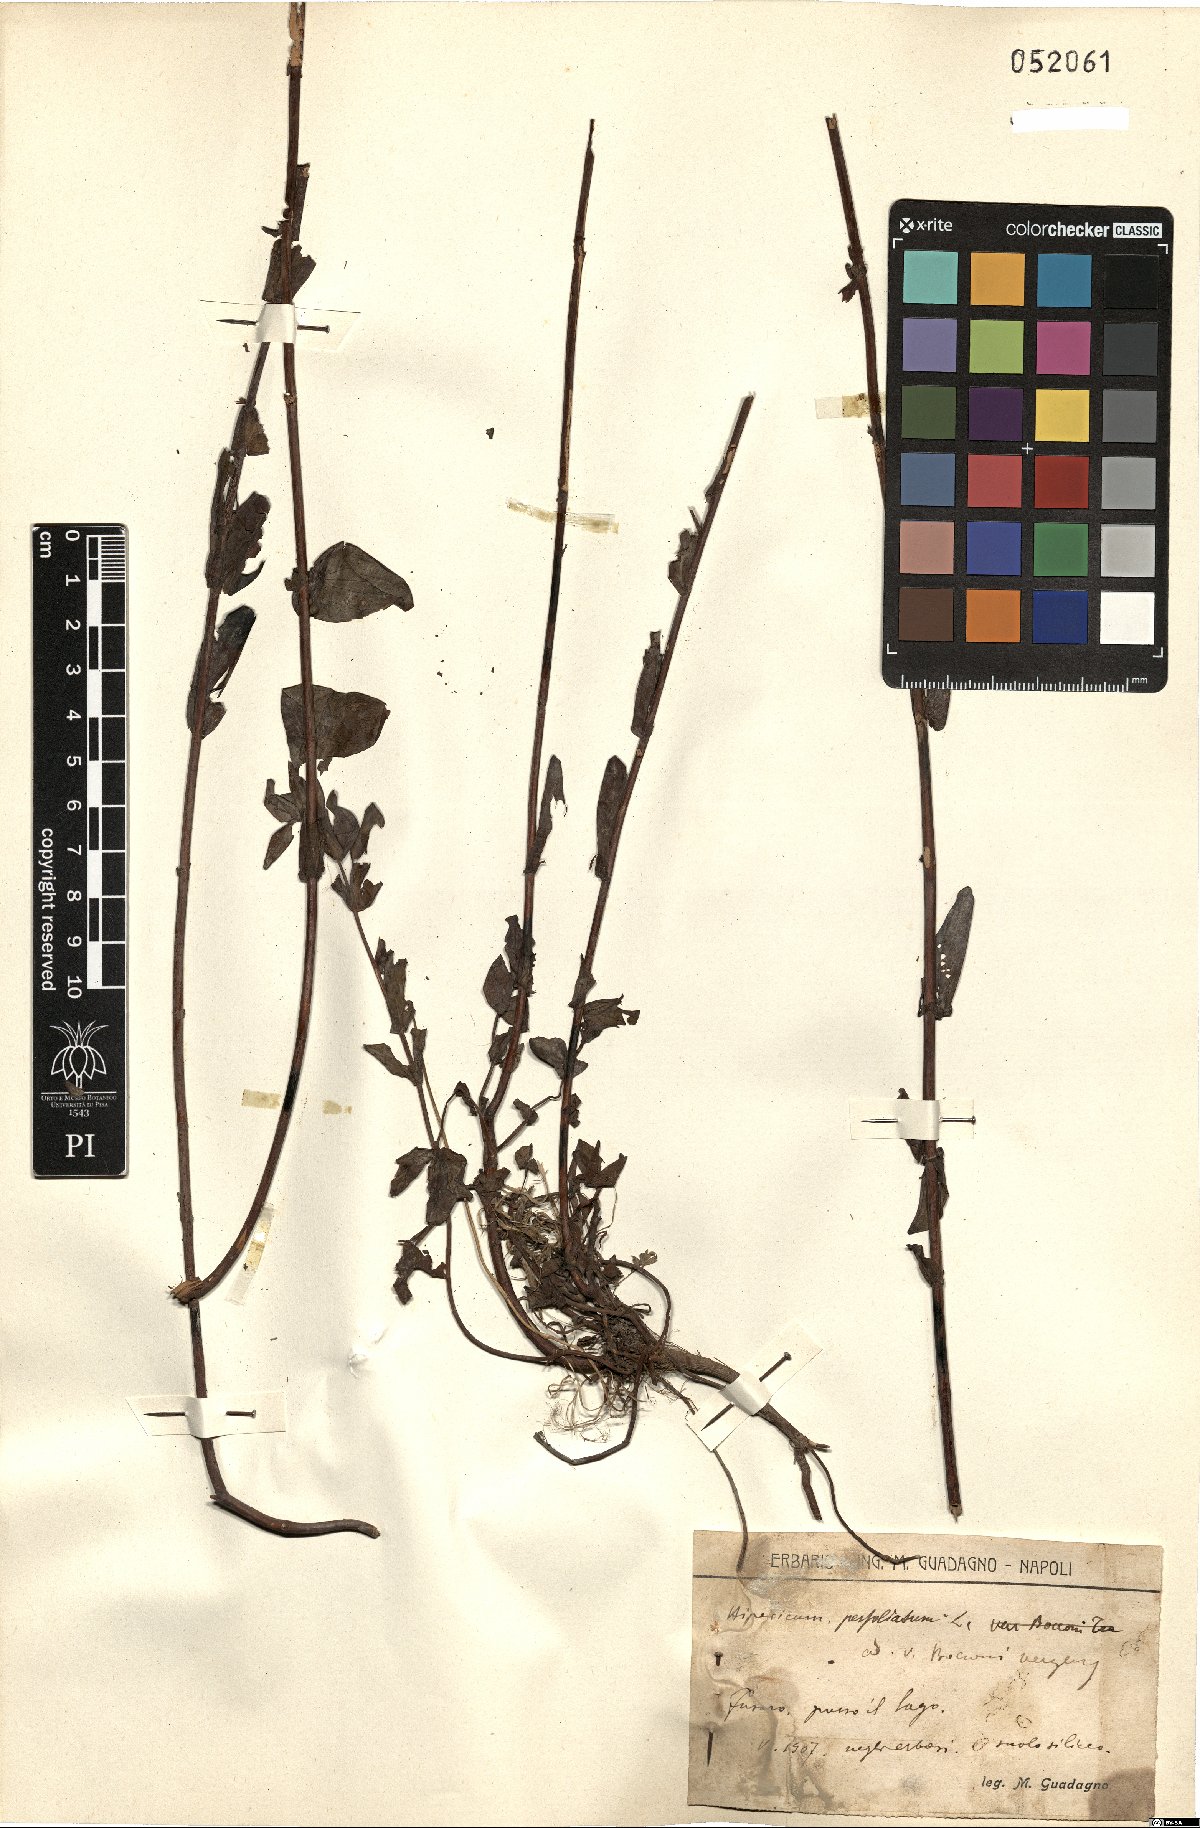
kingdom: Plantae
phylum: Tracheophyta
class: Magnoliopsida
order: Malpighiales
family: Hypericaceae
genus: Hypericum
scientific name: Hypericum perfoliatum
